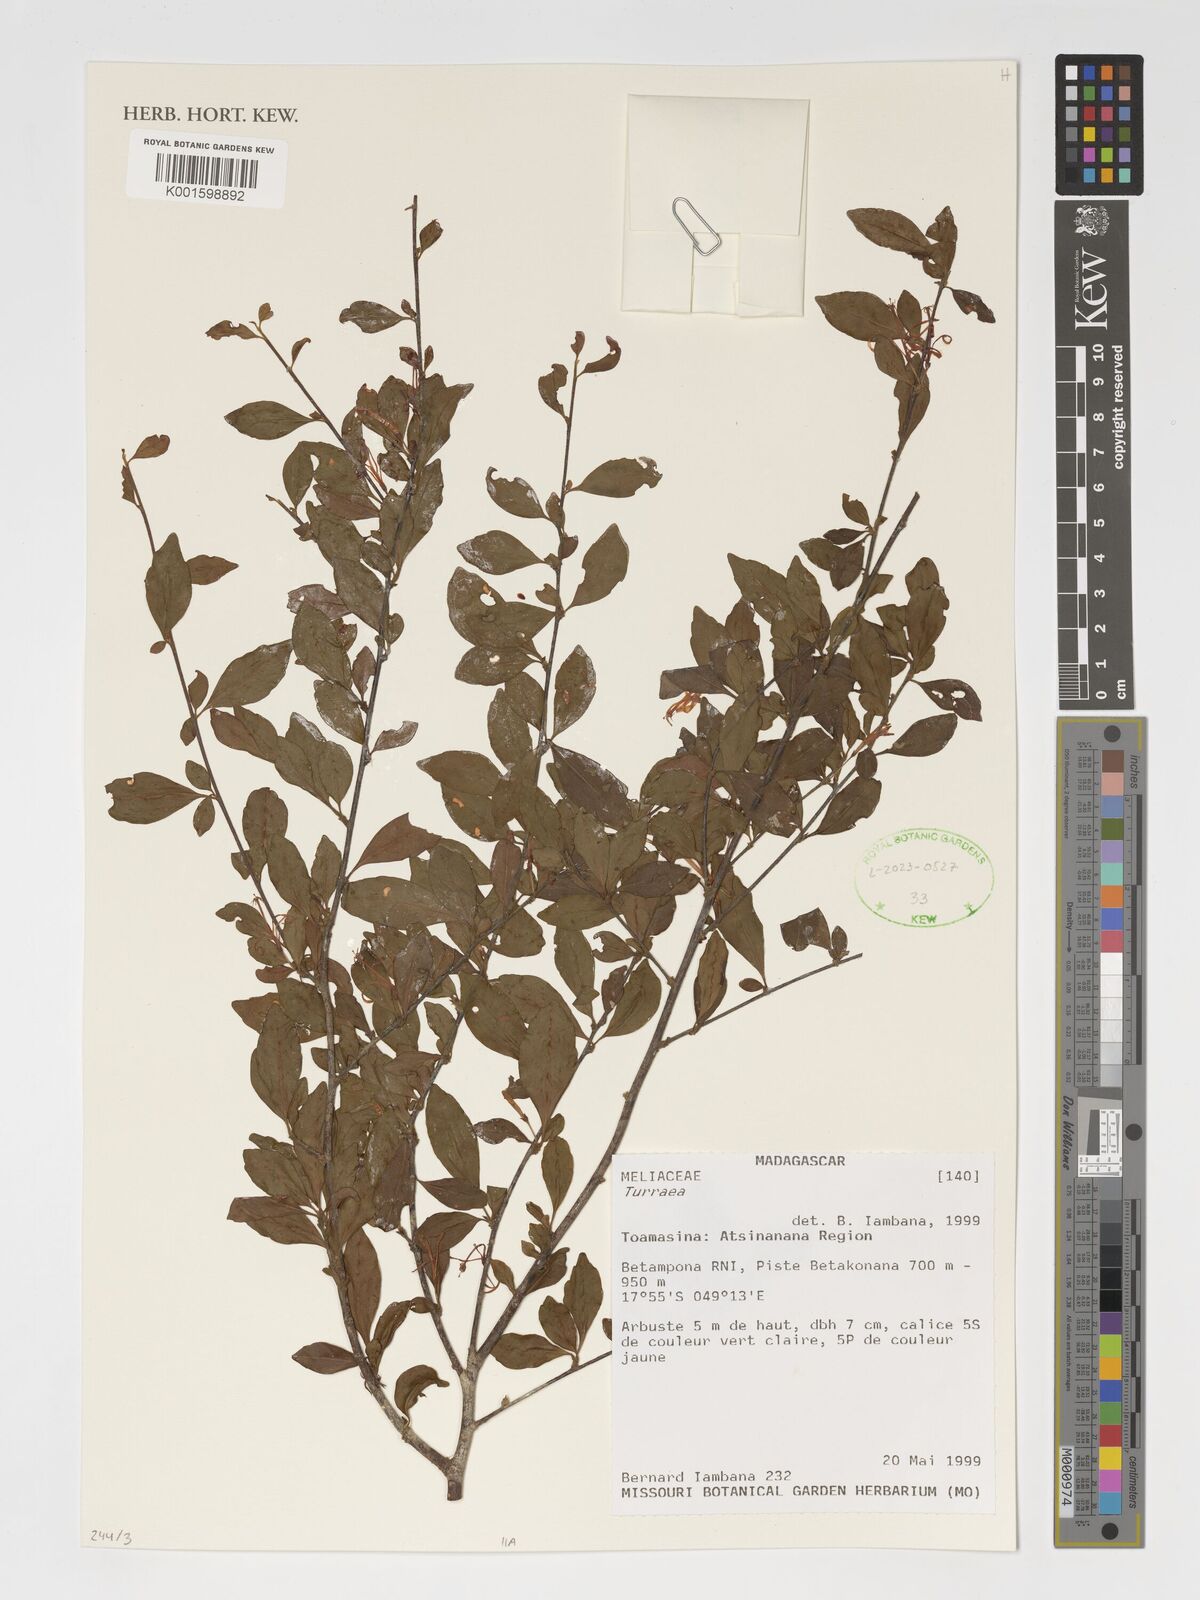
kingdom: Plantae
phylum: Tracheophyta
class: Magnoliopsida
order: Sapindales
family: Meliaceae
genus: Turraea
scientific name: Turraea
